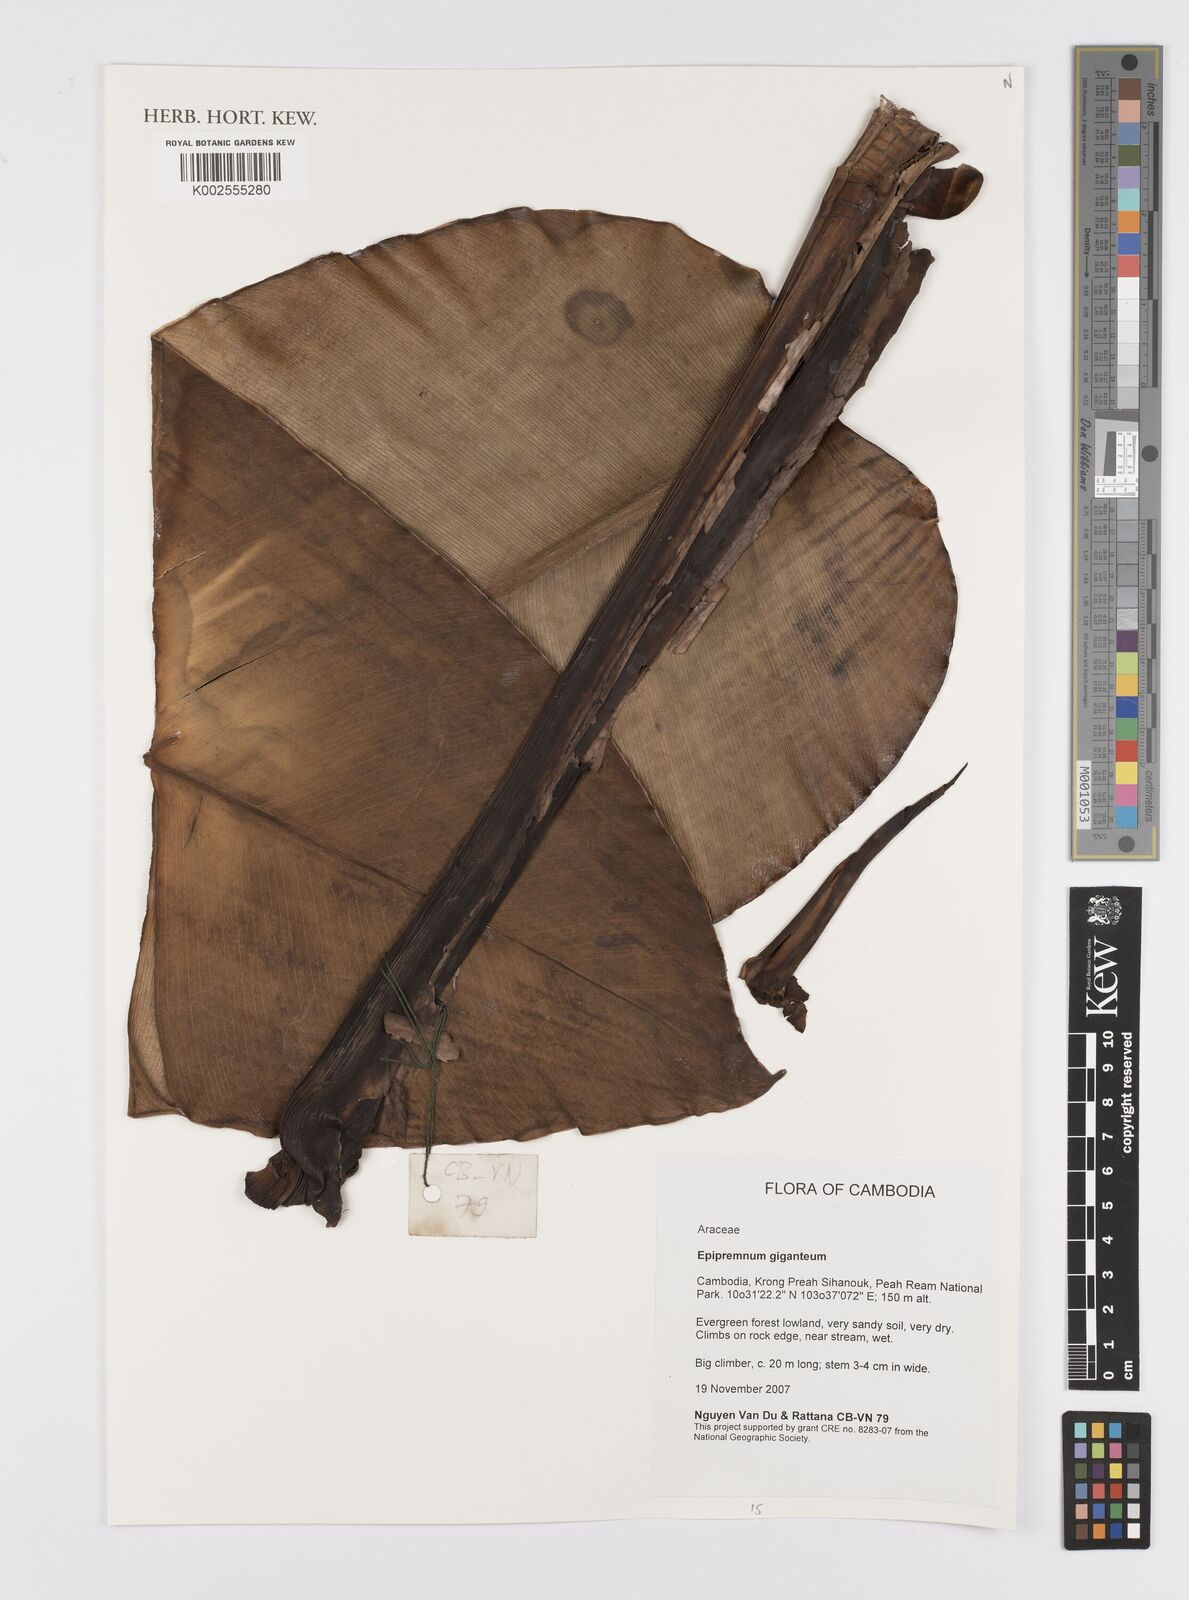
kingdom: Plantae
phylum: Tracheophyta
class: Liliopsida
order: Alismatales
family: Araceae
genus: Epipremnum
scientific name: Epipremnum giganteum
